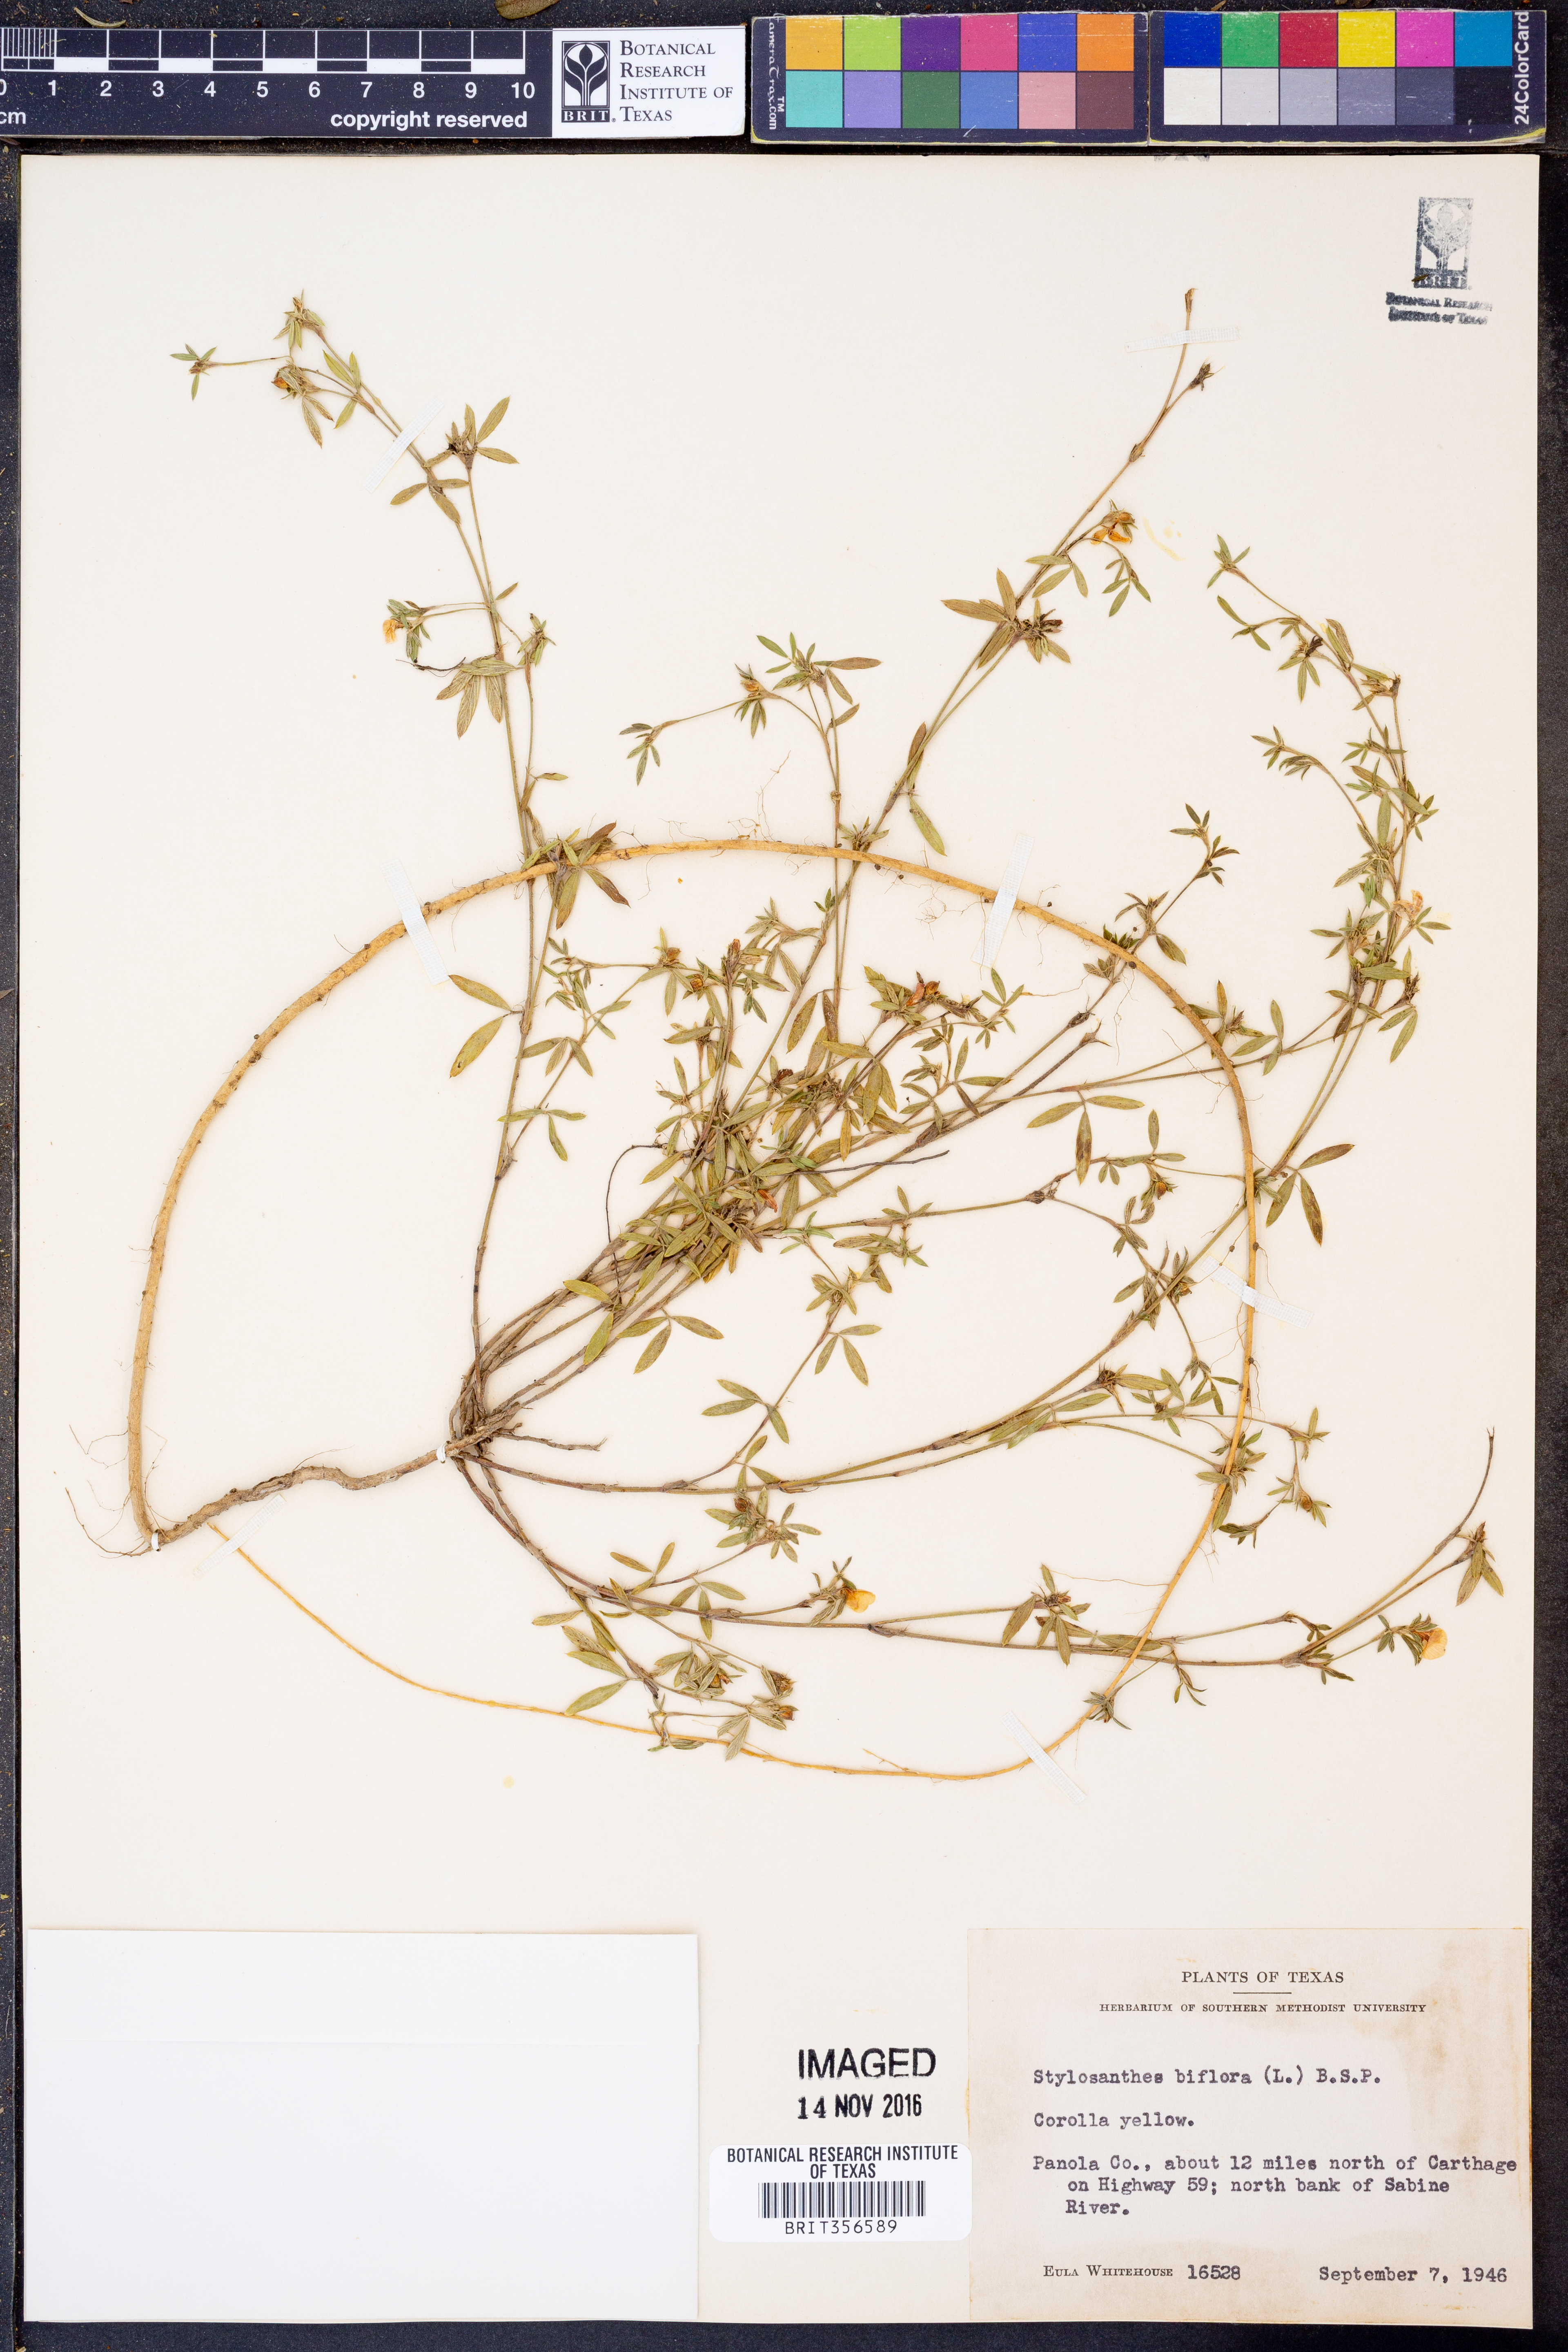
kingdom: Plantae
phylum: Tracheophyta
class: Magnoliopsida
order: Fabales
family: Fabaceae
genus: Stylosanthes
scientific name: Stylosanthes biflora
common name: Two-flower pencil-flower
